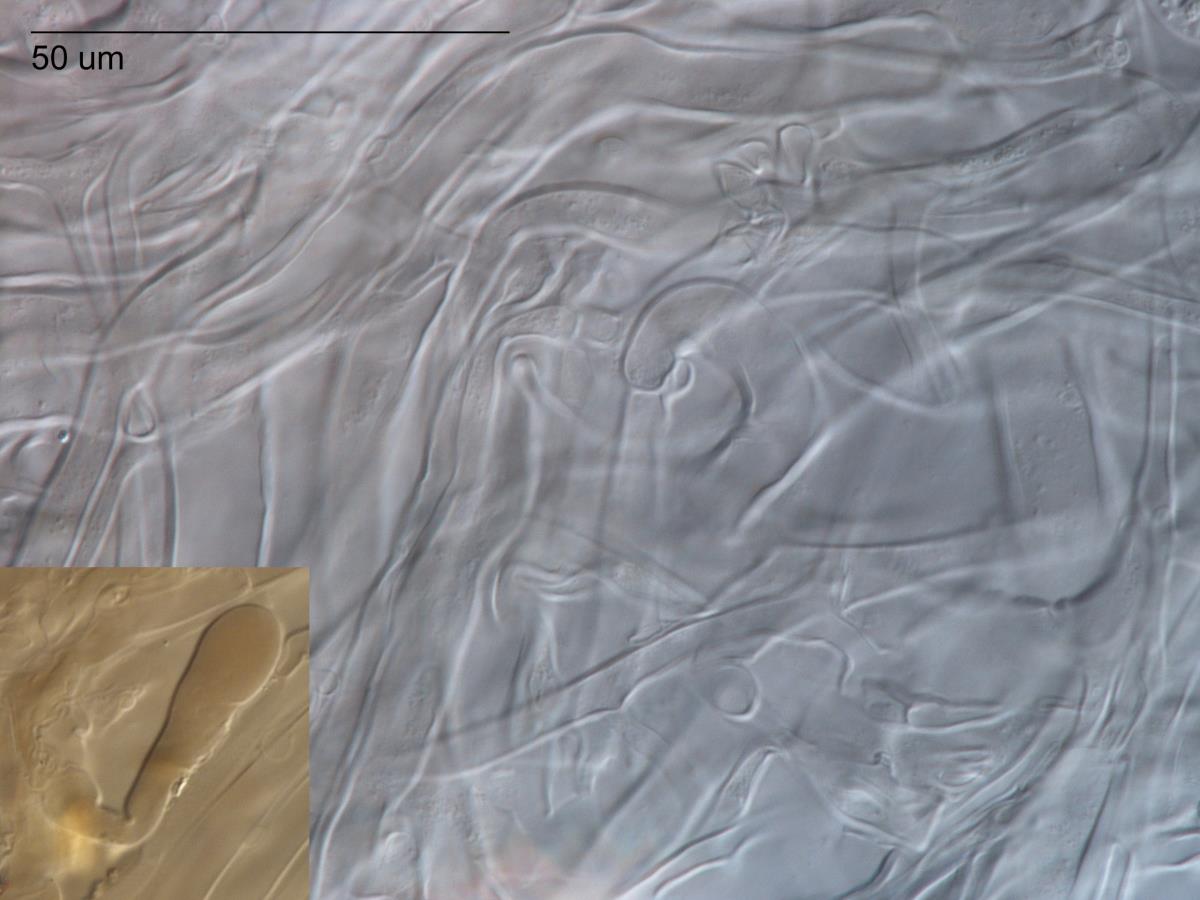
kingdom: Fungi
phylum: Basidiomycota
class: Agaricomycetes
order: Agaricales
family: Hygrophoraceae
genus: Pseudoarmillariella
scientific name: Pseudoarmillariella fistulosa
